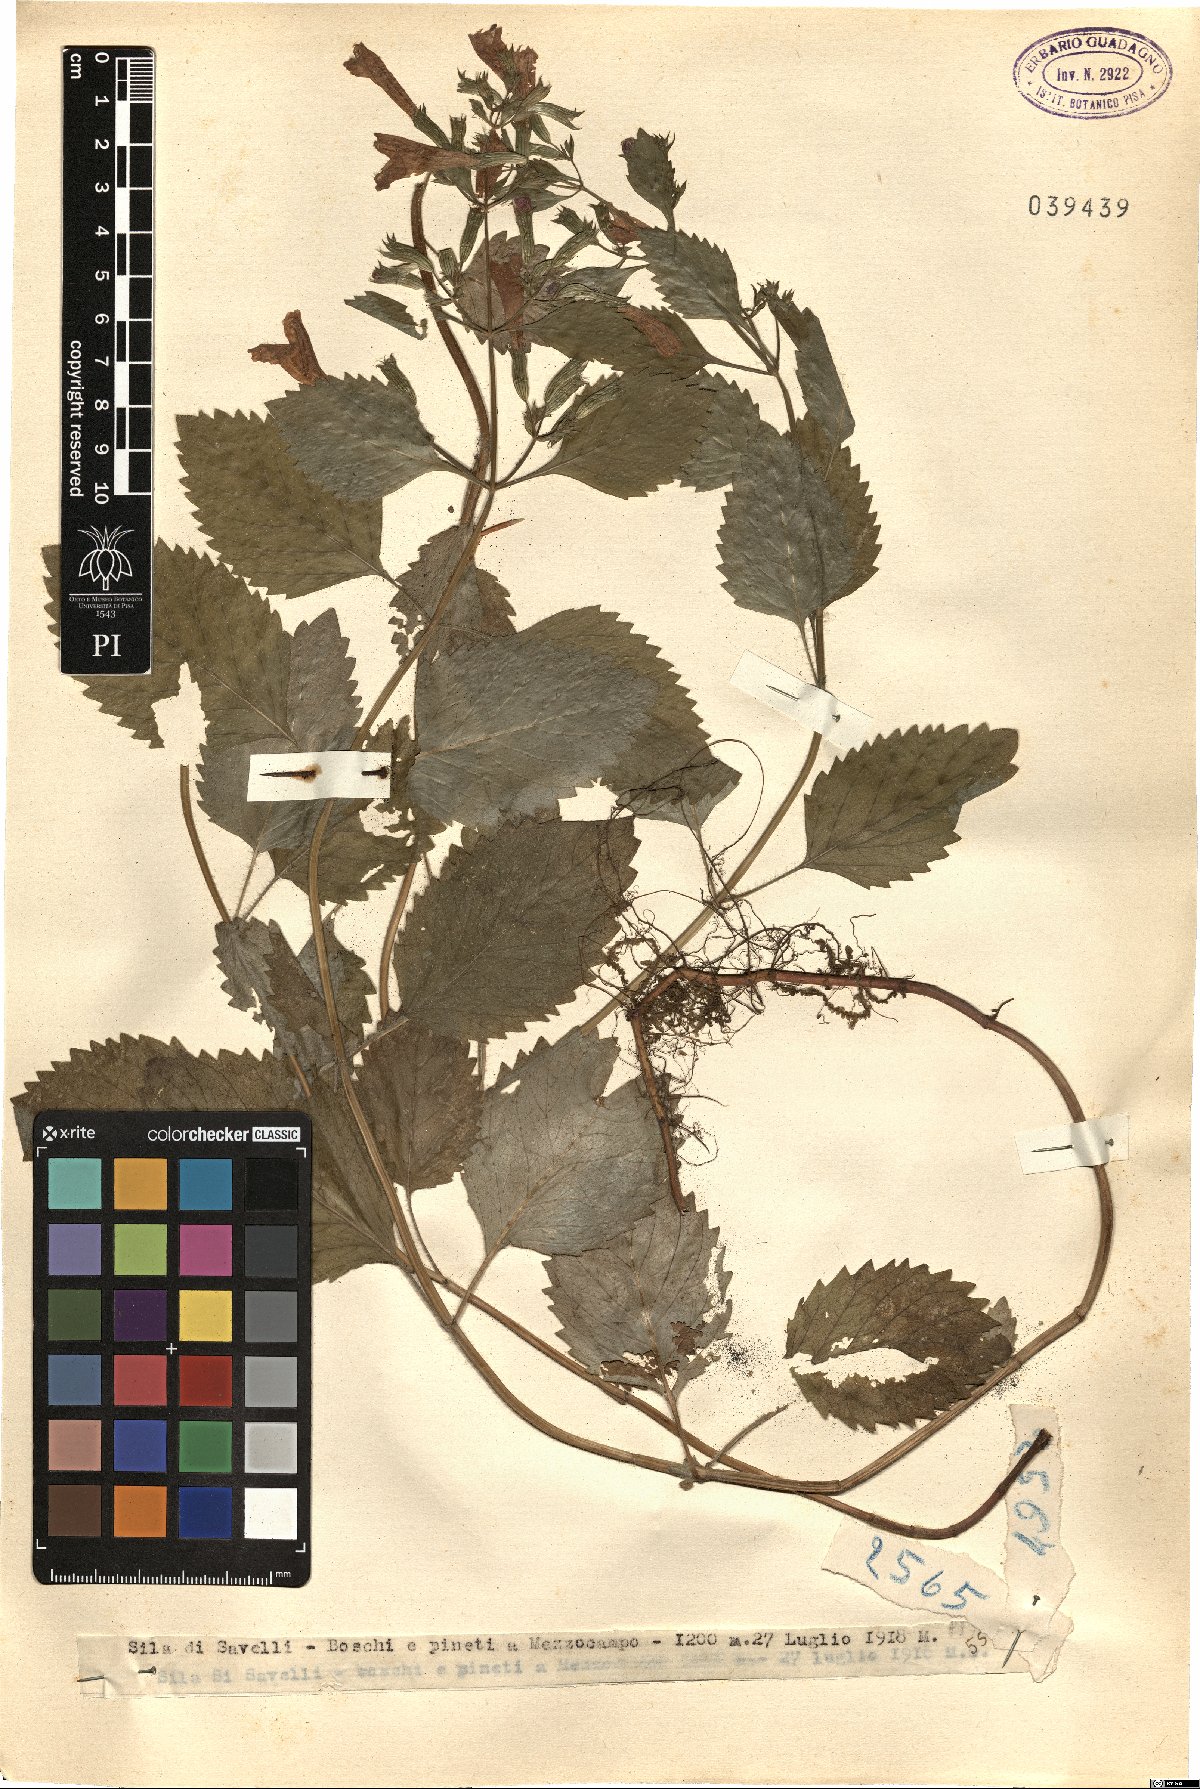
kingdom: Plantae
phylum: Tracheophyta
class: Magnoliopsida
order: Lamiales
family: Lamiaceae
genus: Calamintha
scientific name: Calamintha
